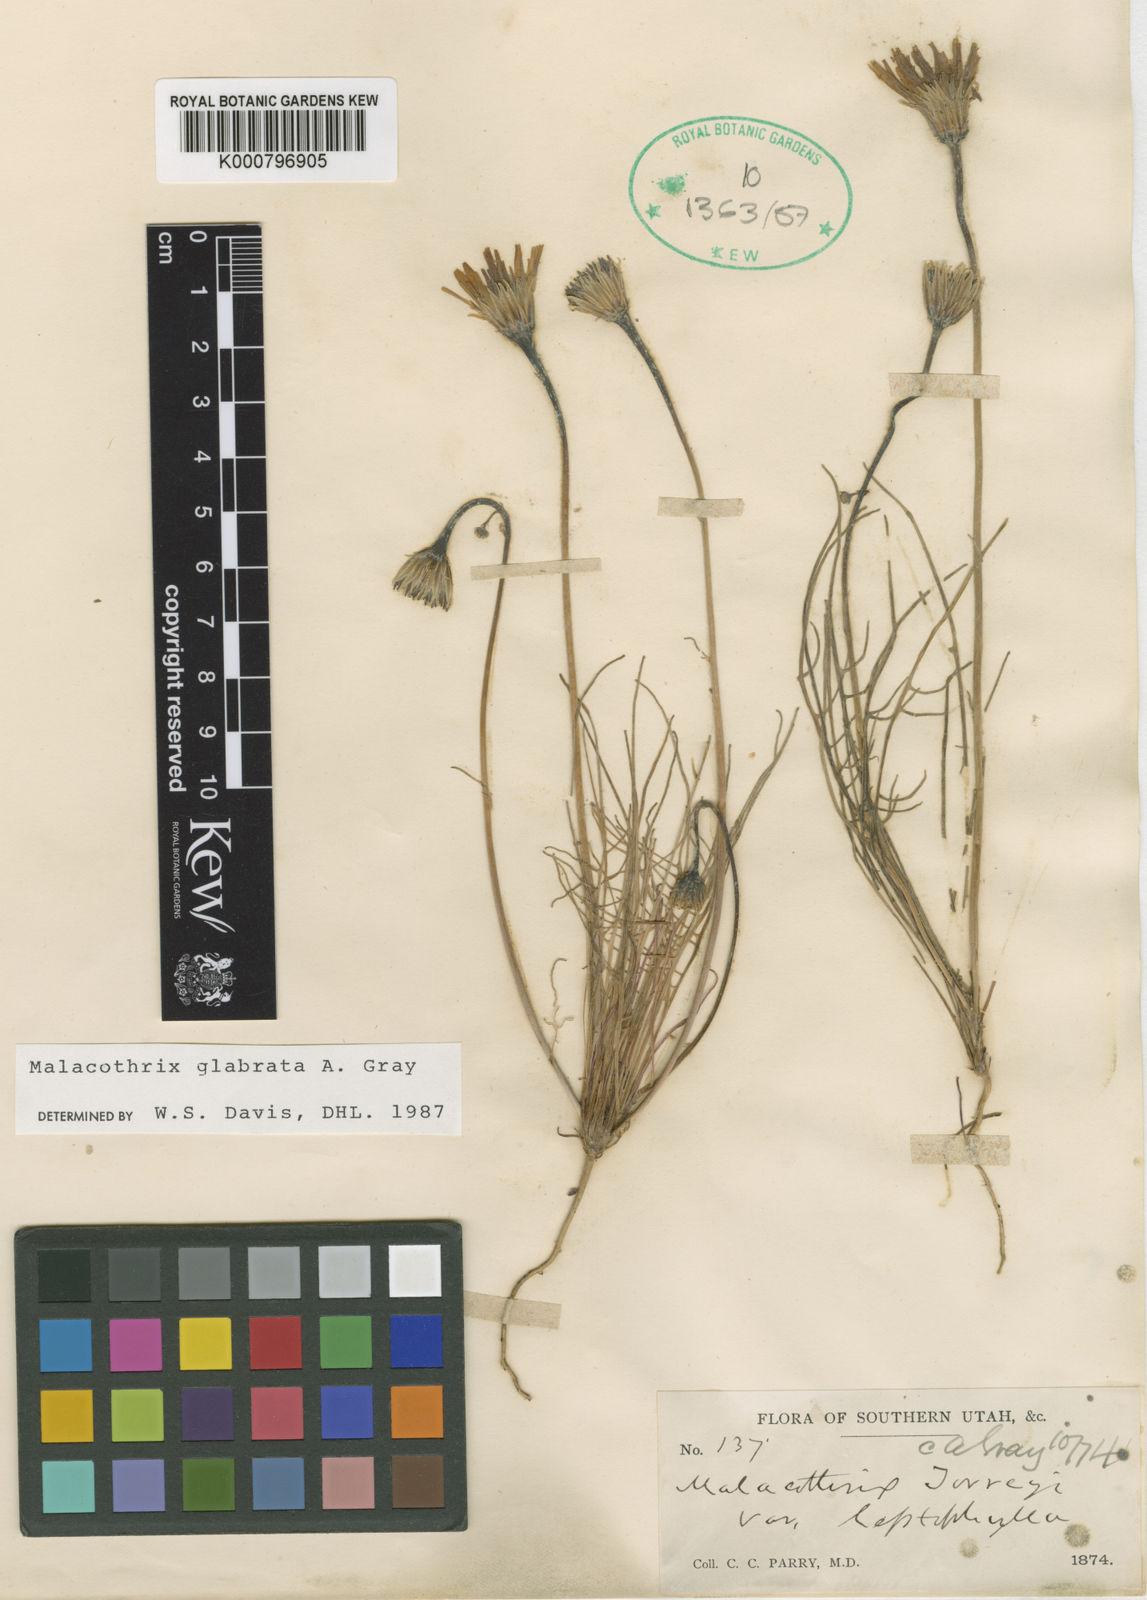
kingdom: Plantae
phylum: Tracheophyta
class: Magnoliopsida
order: Asterales
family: Asteraceae
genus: Malacothrix
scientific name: Malacothrix glabrata
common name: Smooth desert-dandelion
